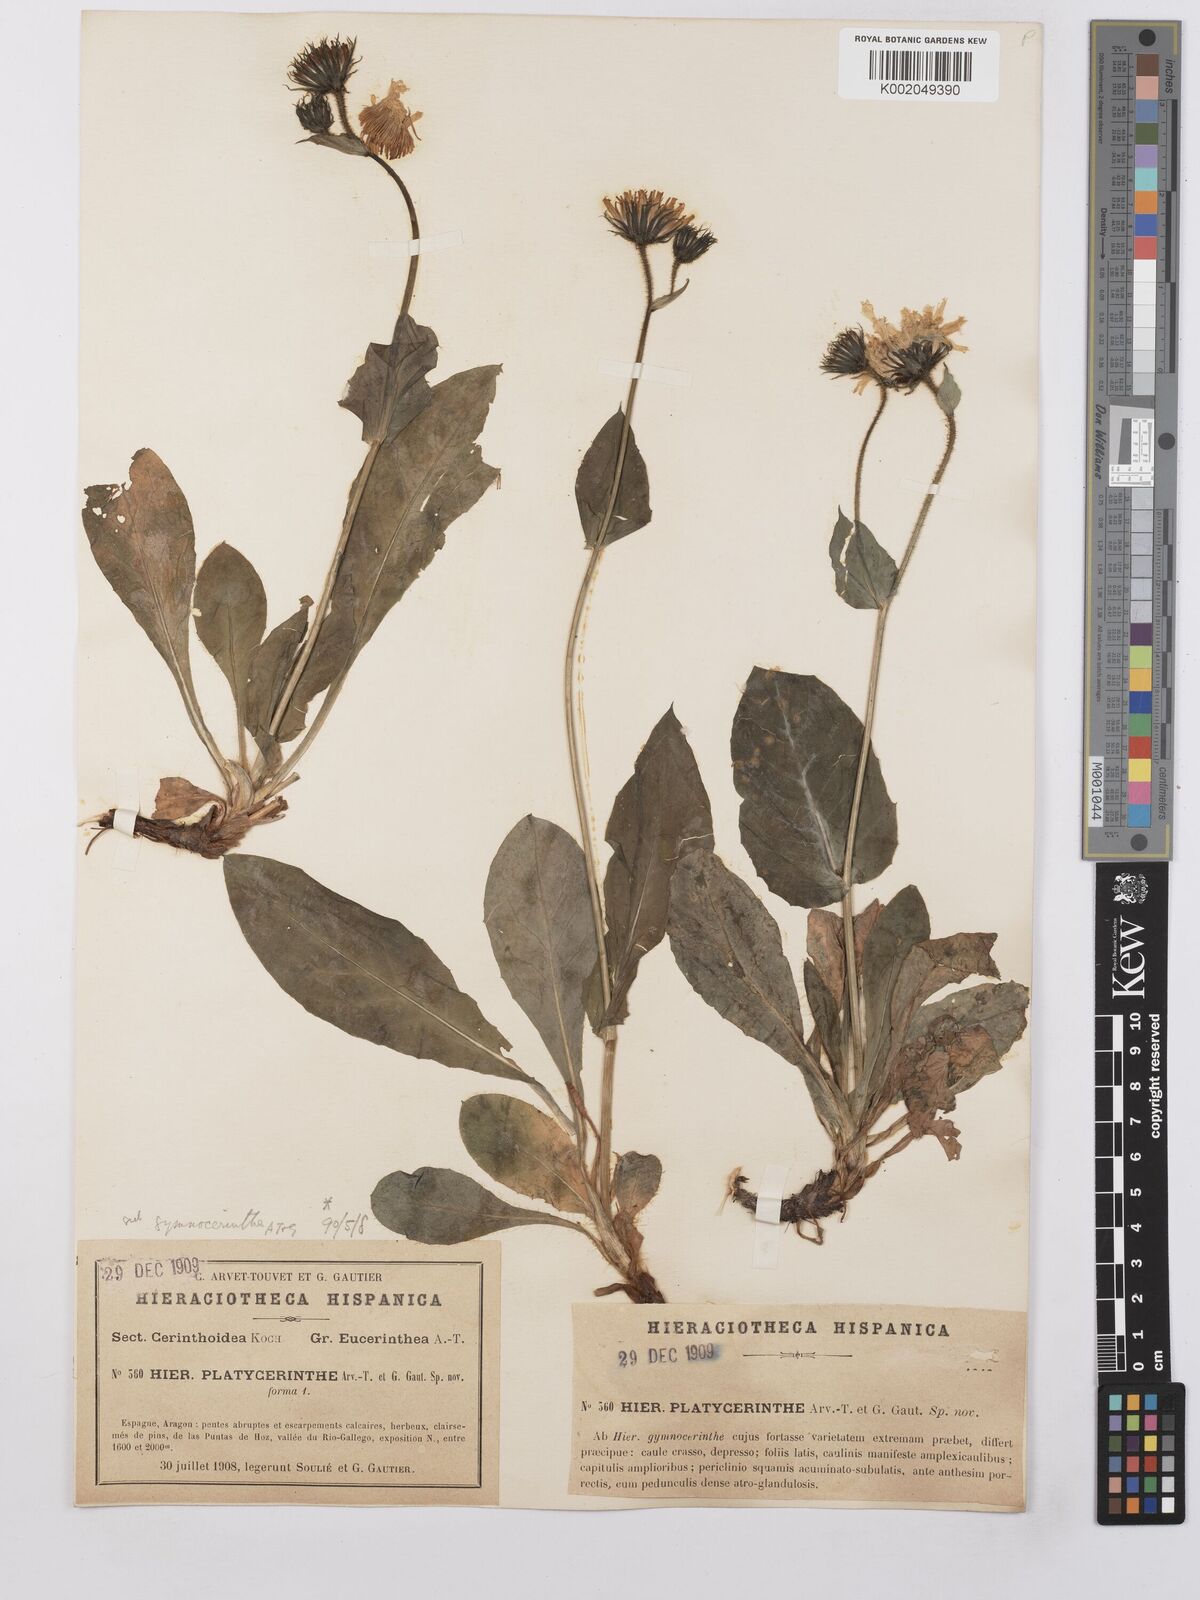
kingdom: Plantae
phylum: Tracheophyta
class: Magnoliopsida
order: Asterales
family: Asteraceae
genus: Hieracium
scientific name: Hieracium cerinthoides
